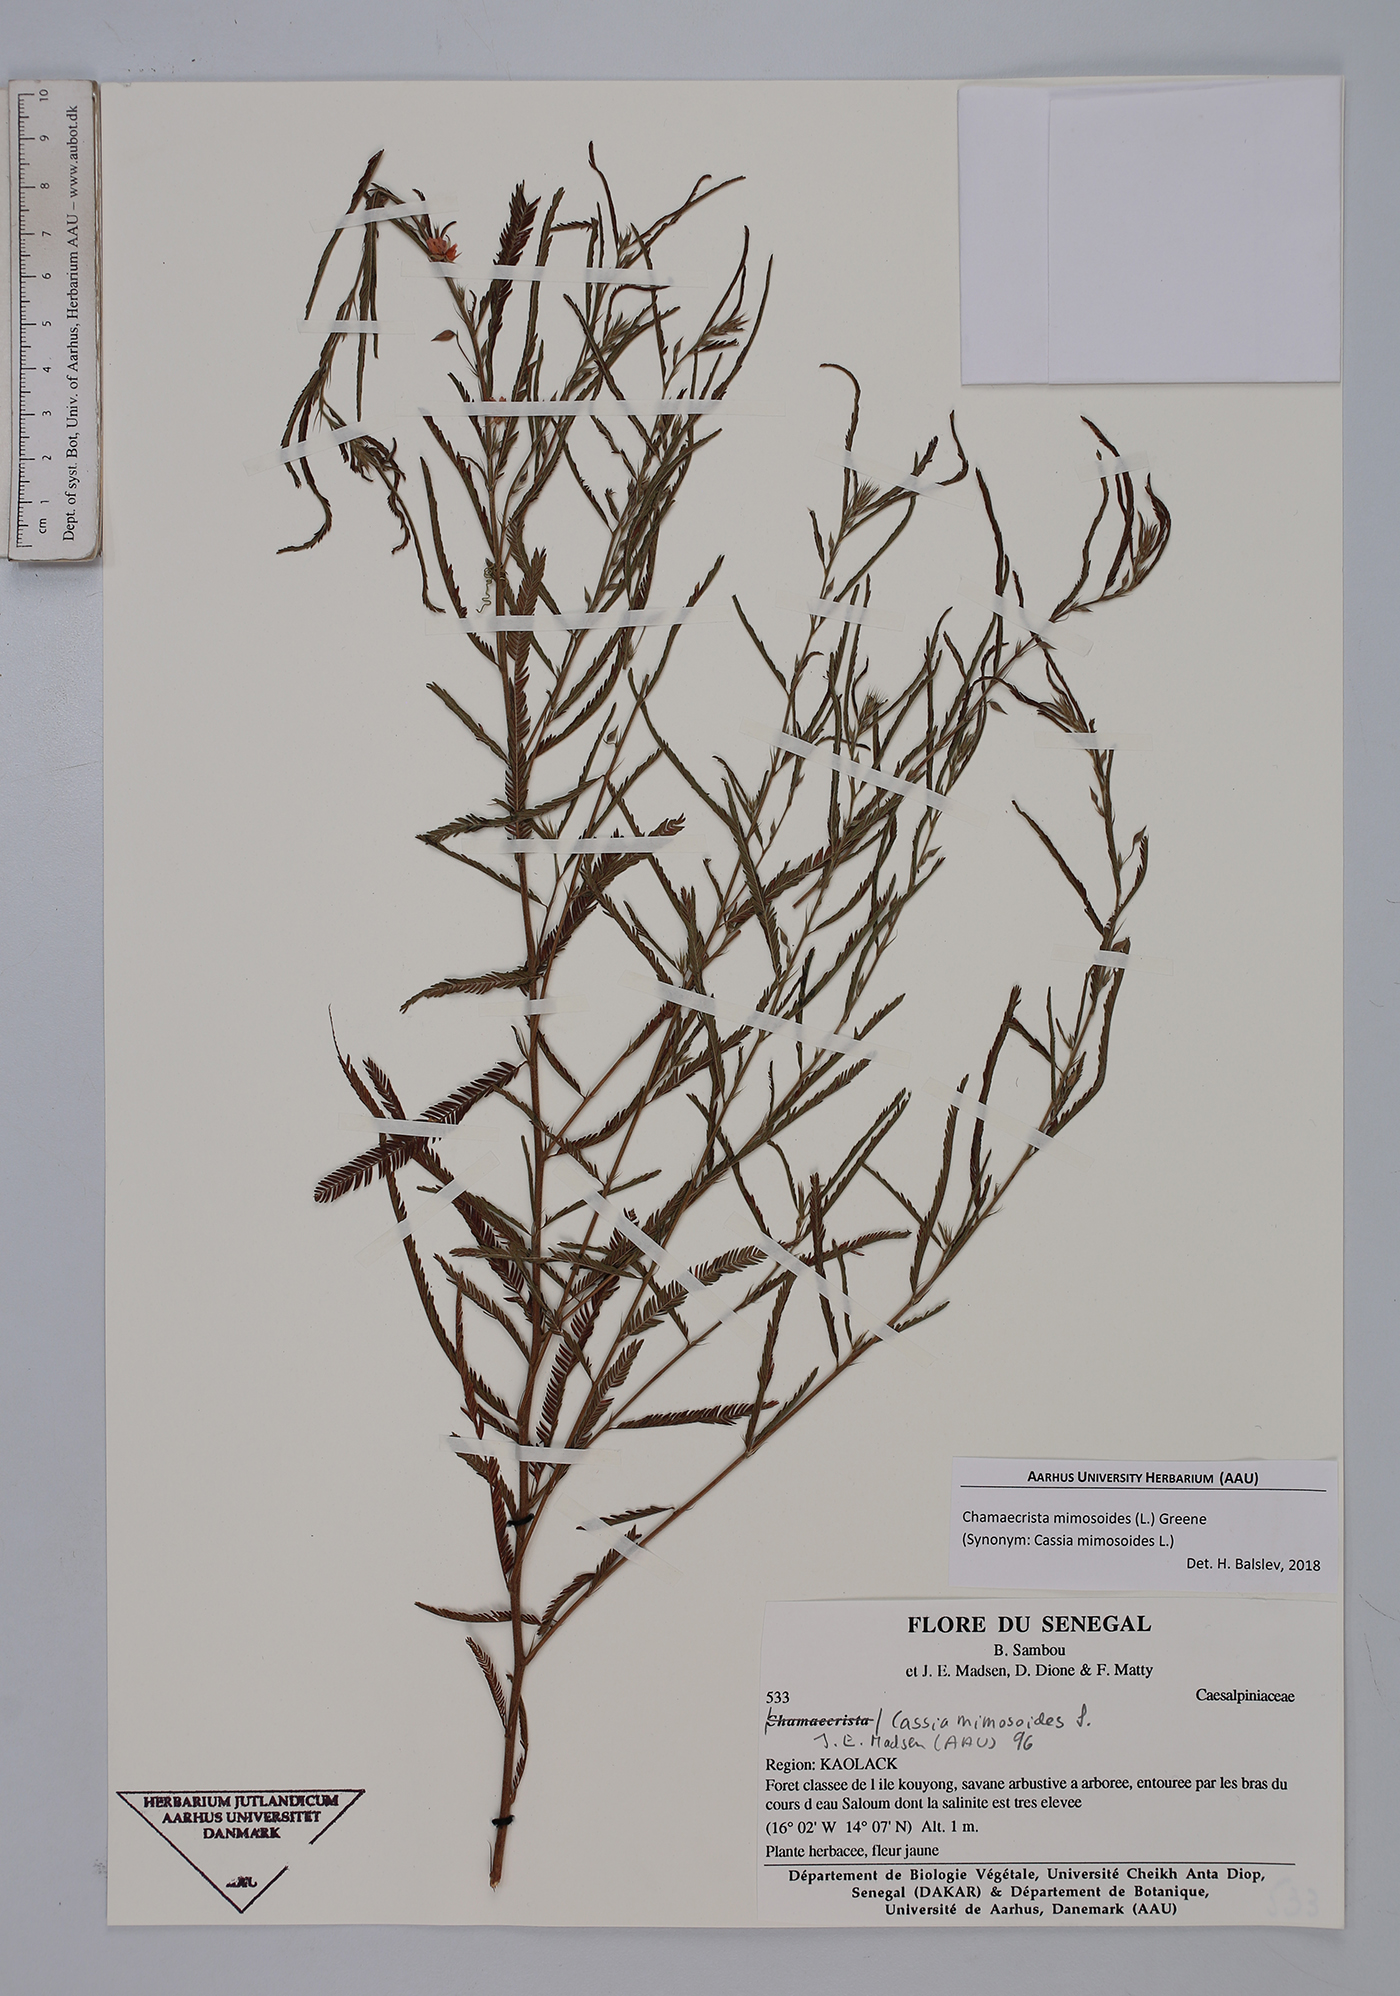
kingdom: Plantae
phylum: Tracheophyta
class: Magnoliopsida
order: Fabales
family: Fabaceae
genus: Chamaecrista
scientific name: Chamaecrista mimosoides
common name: Fish-bone cassia
